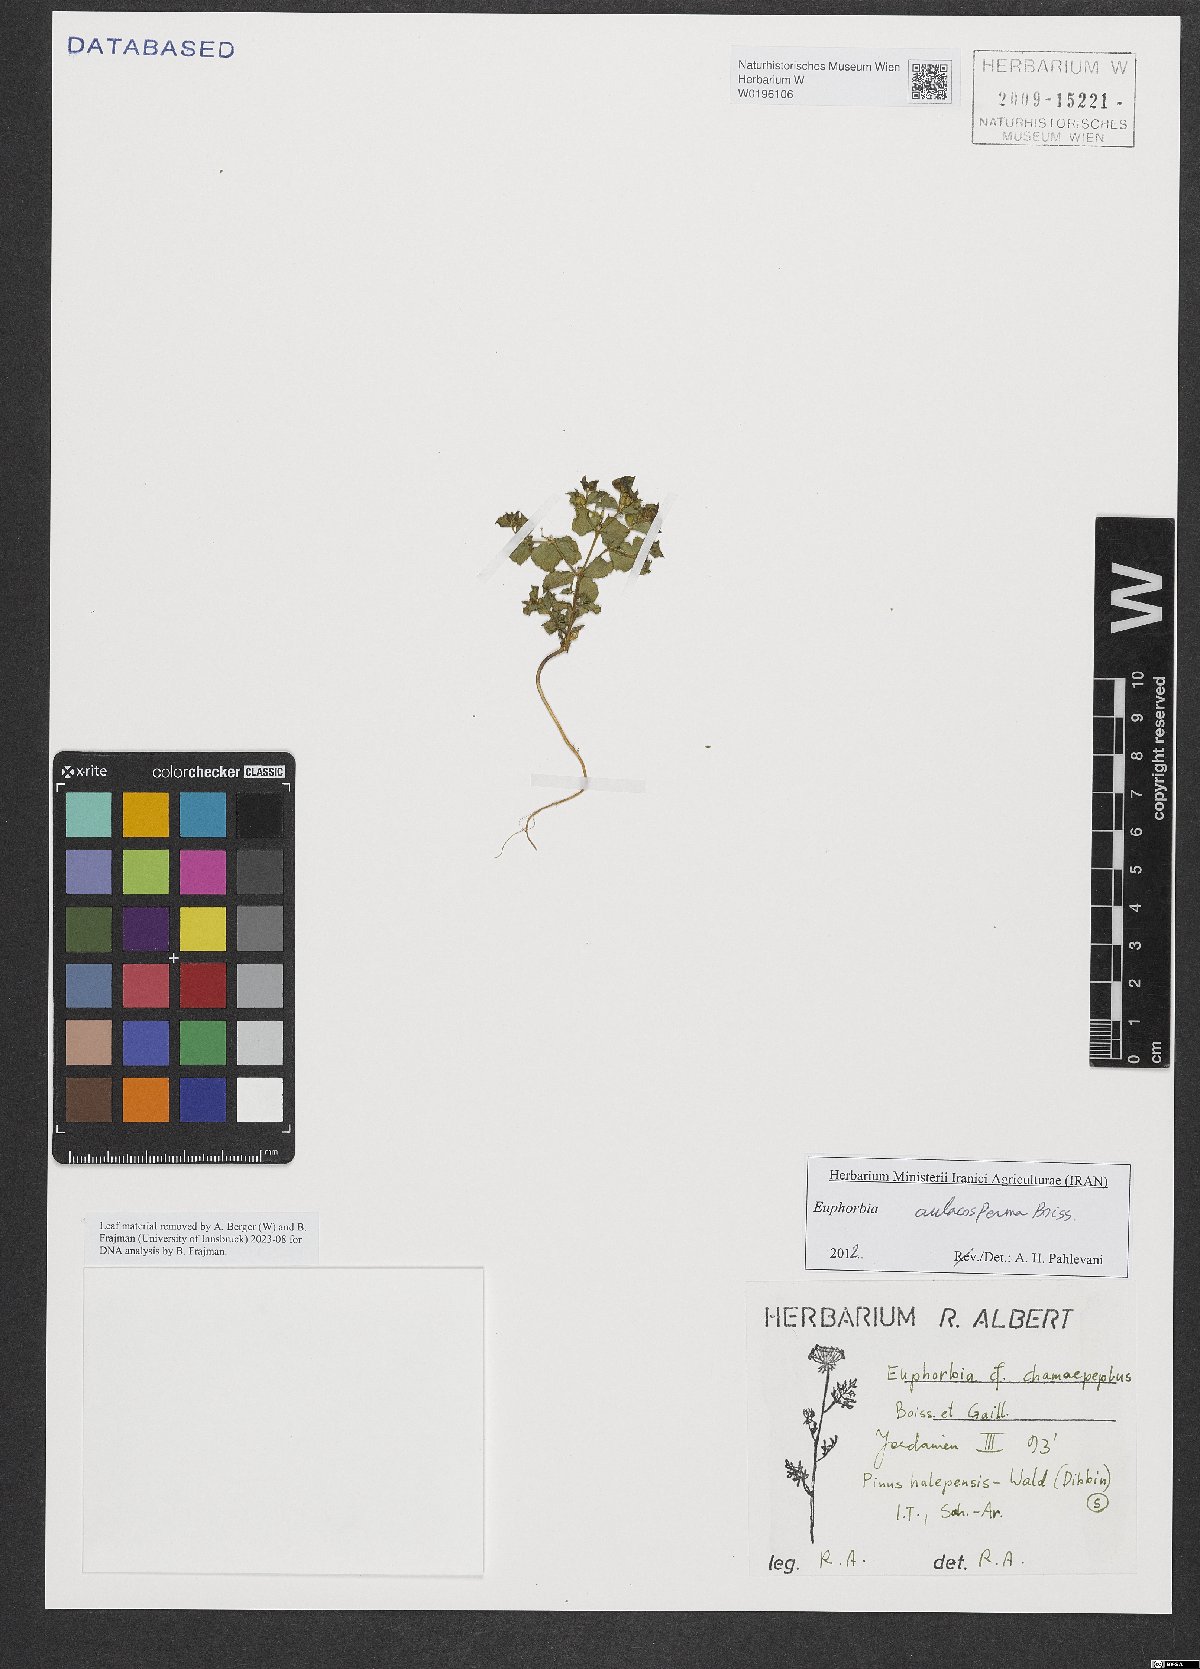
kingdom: Plantae
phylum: Tracheophyta
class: Magnoliopsida
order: Malpighiales
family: Euphorbiaceae
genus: Euphorbia
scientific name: Euphorbia aulacosperma
